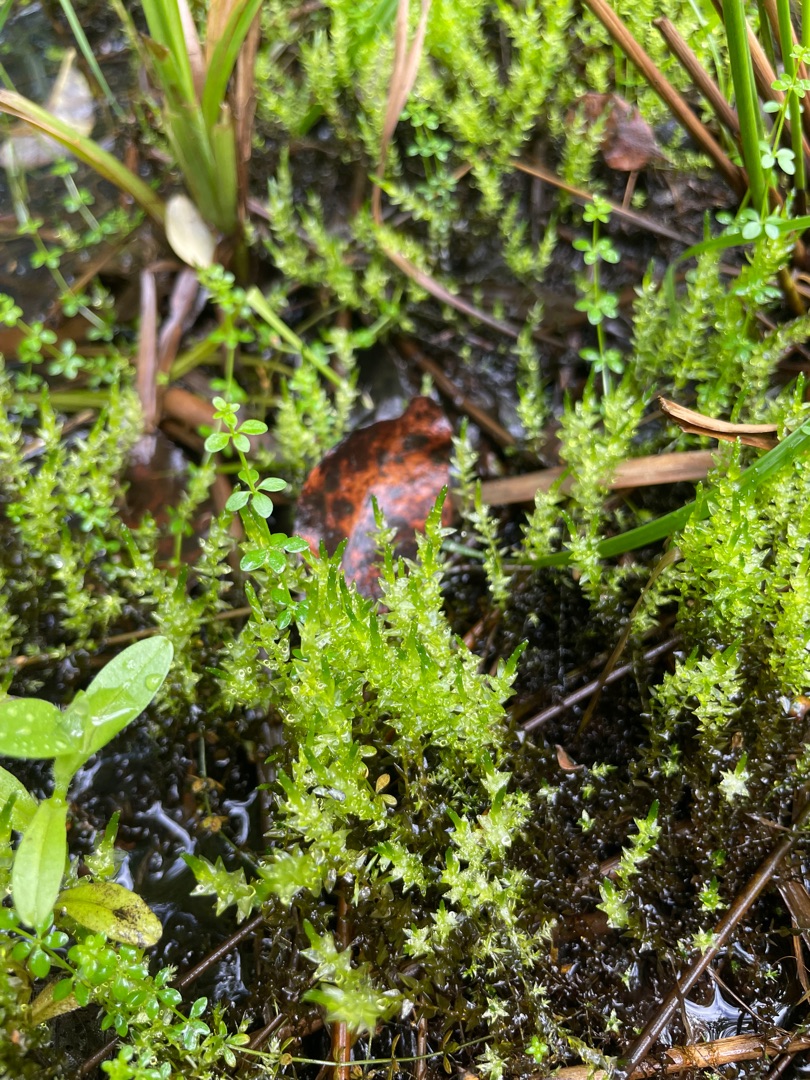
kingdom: Plantae
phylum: Bryophyta
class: Bryopsida
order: Hypnales
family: Calliergonaceae
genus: Calliergon
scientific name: Calliergon cordifolium
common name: Almindelig skebladsmos
